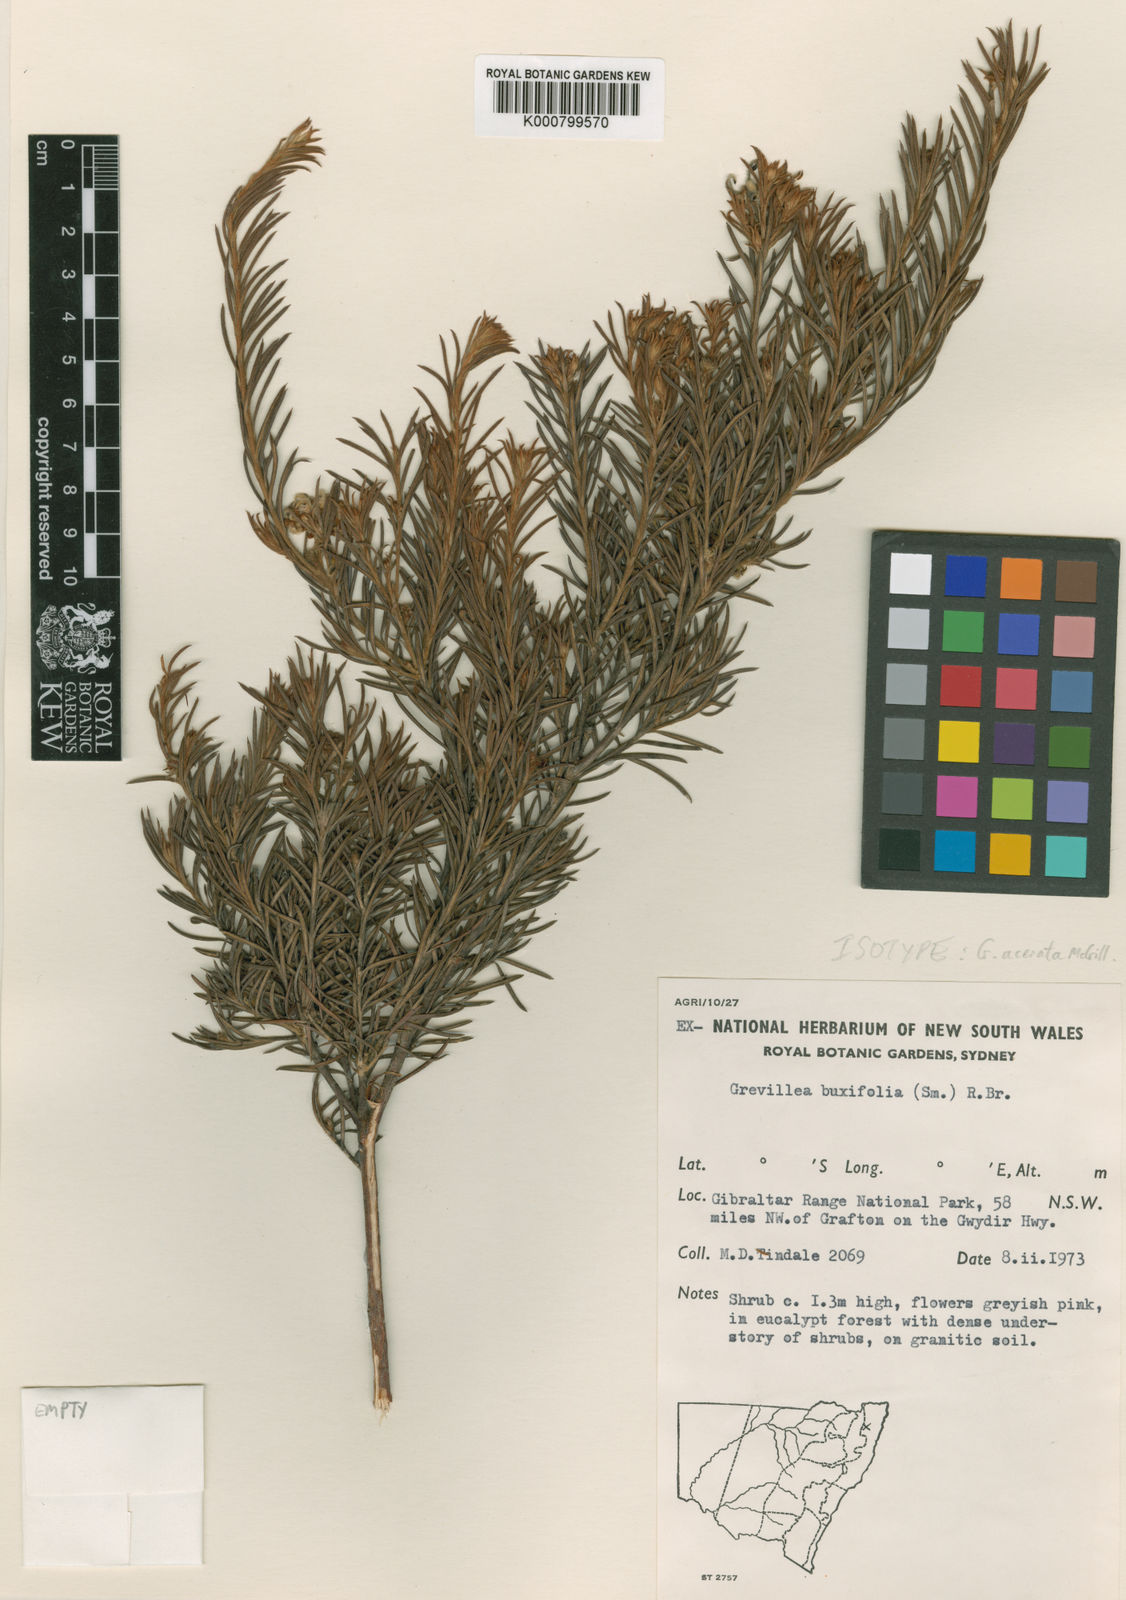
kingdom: Plantae
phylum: Tracheophyta
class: Magnoliopsida
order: Proteales
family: Proteaceae
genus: Grevillea
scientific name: Grevillea acerata
